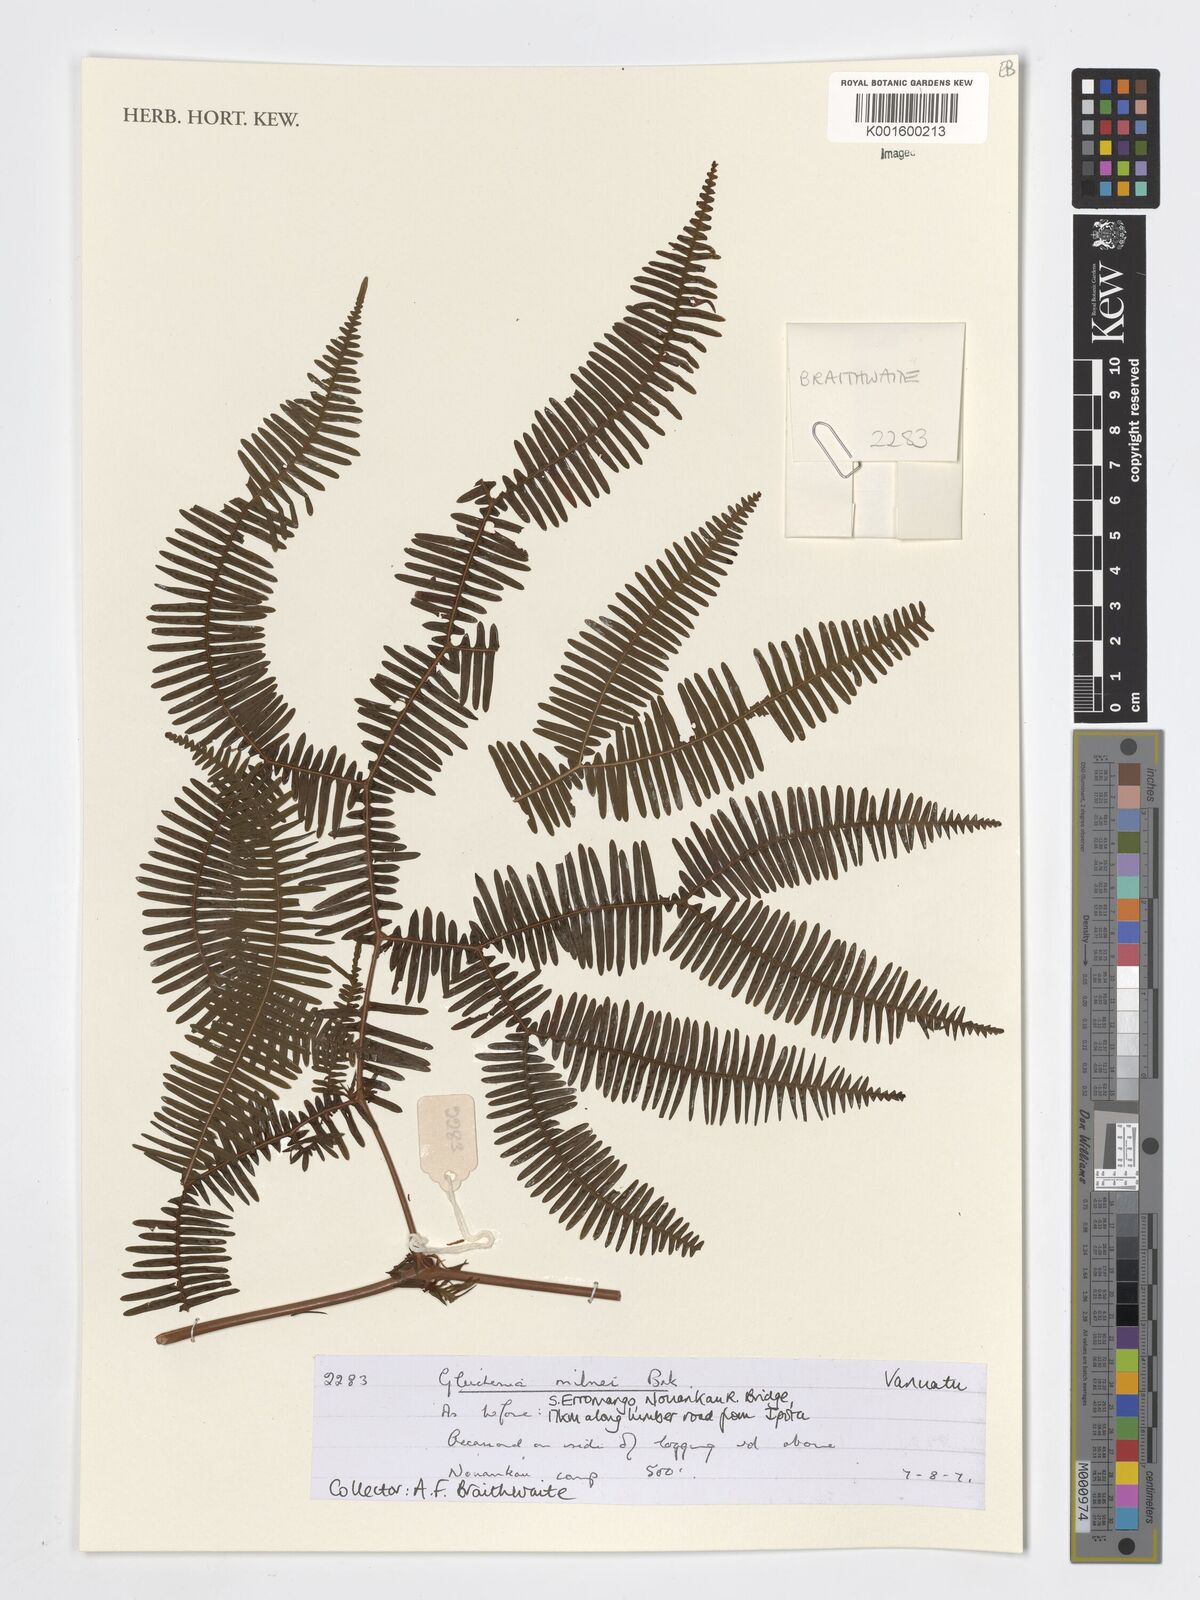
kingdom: Plantae
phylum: Tracheophyta
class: Polypodiopsida
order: Gleicheniales
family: Gleicheniaceae
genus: Sticherus
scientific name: Sticherus milnei
